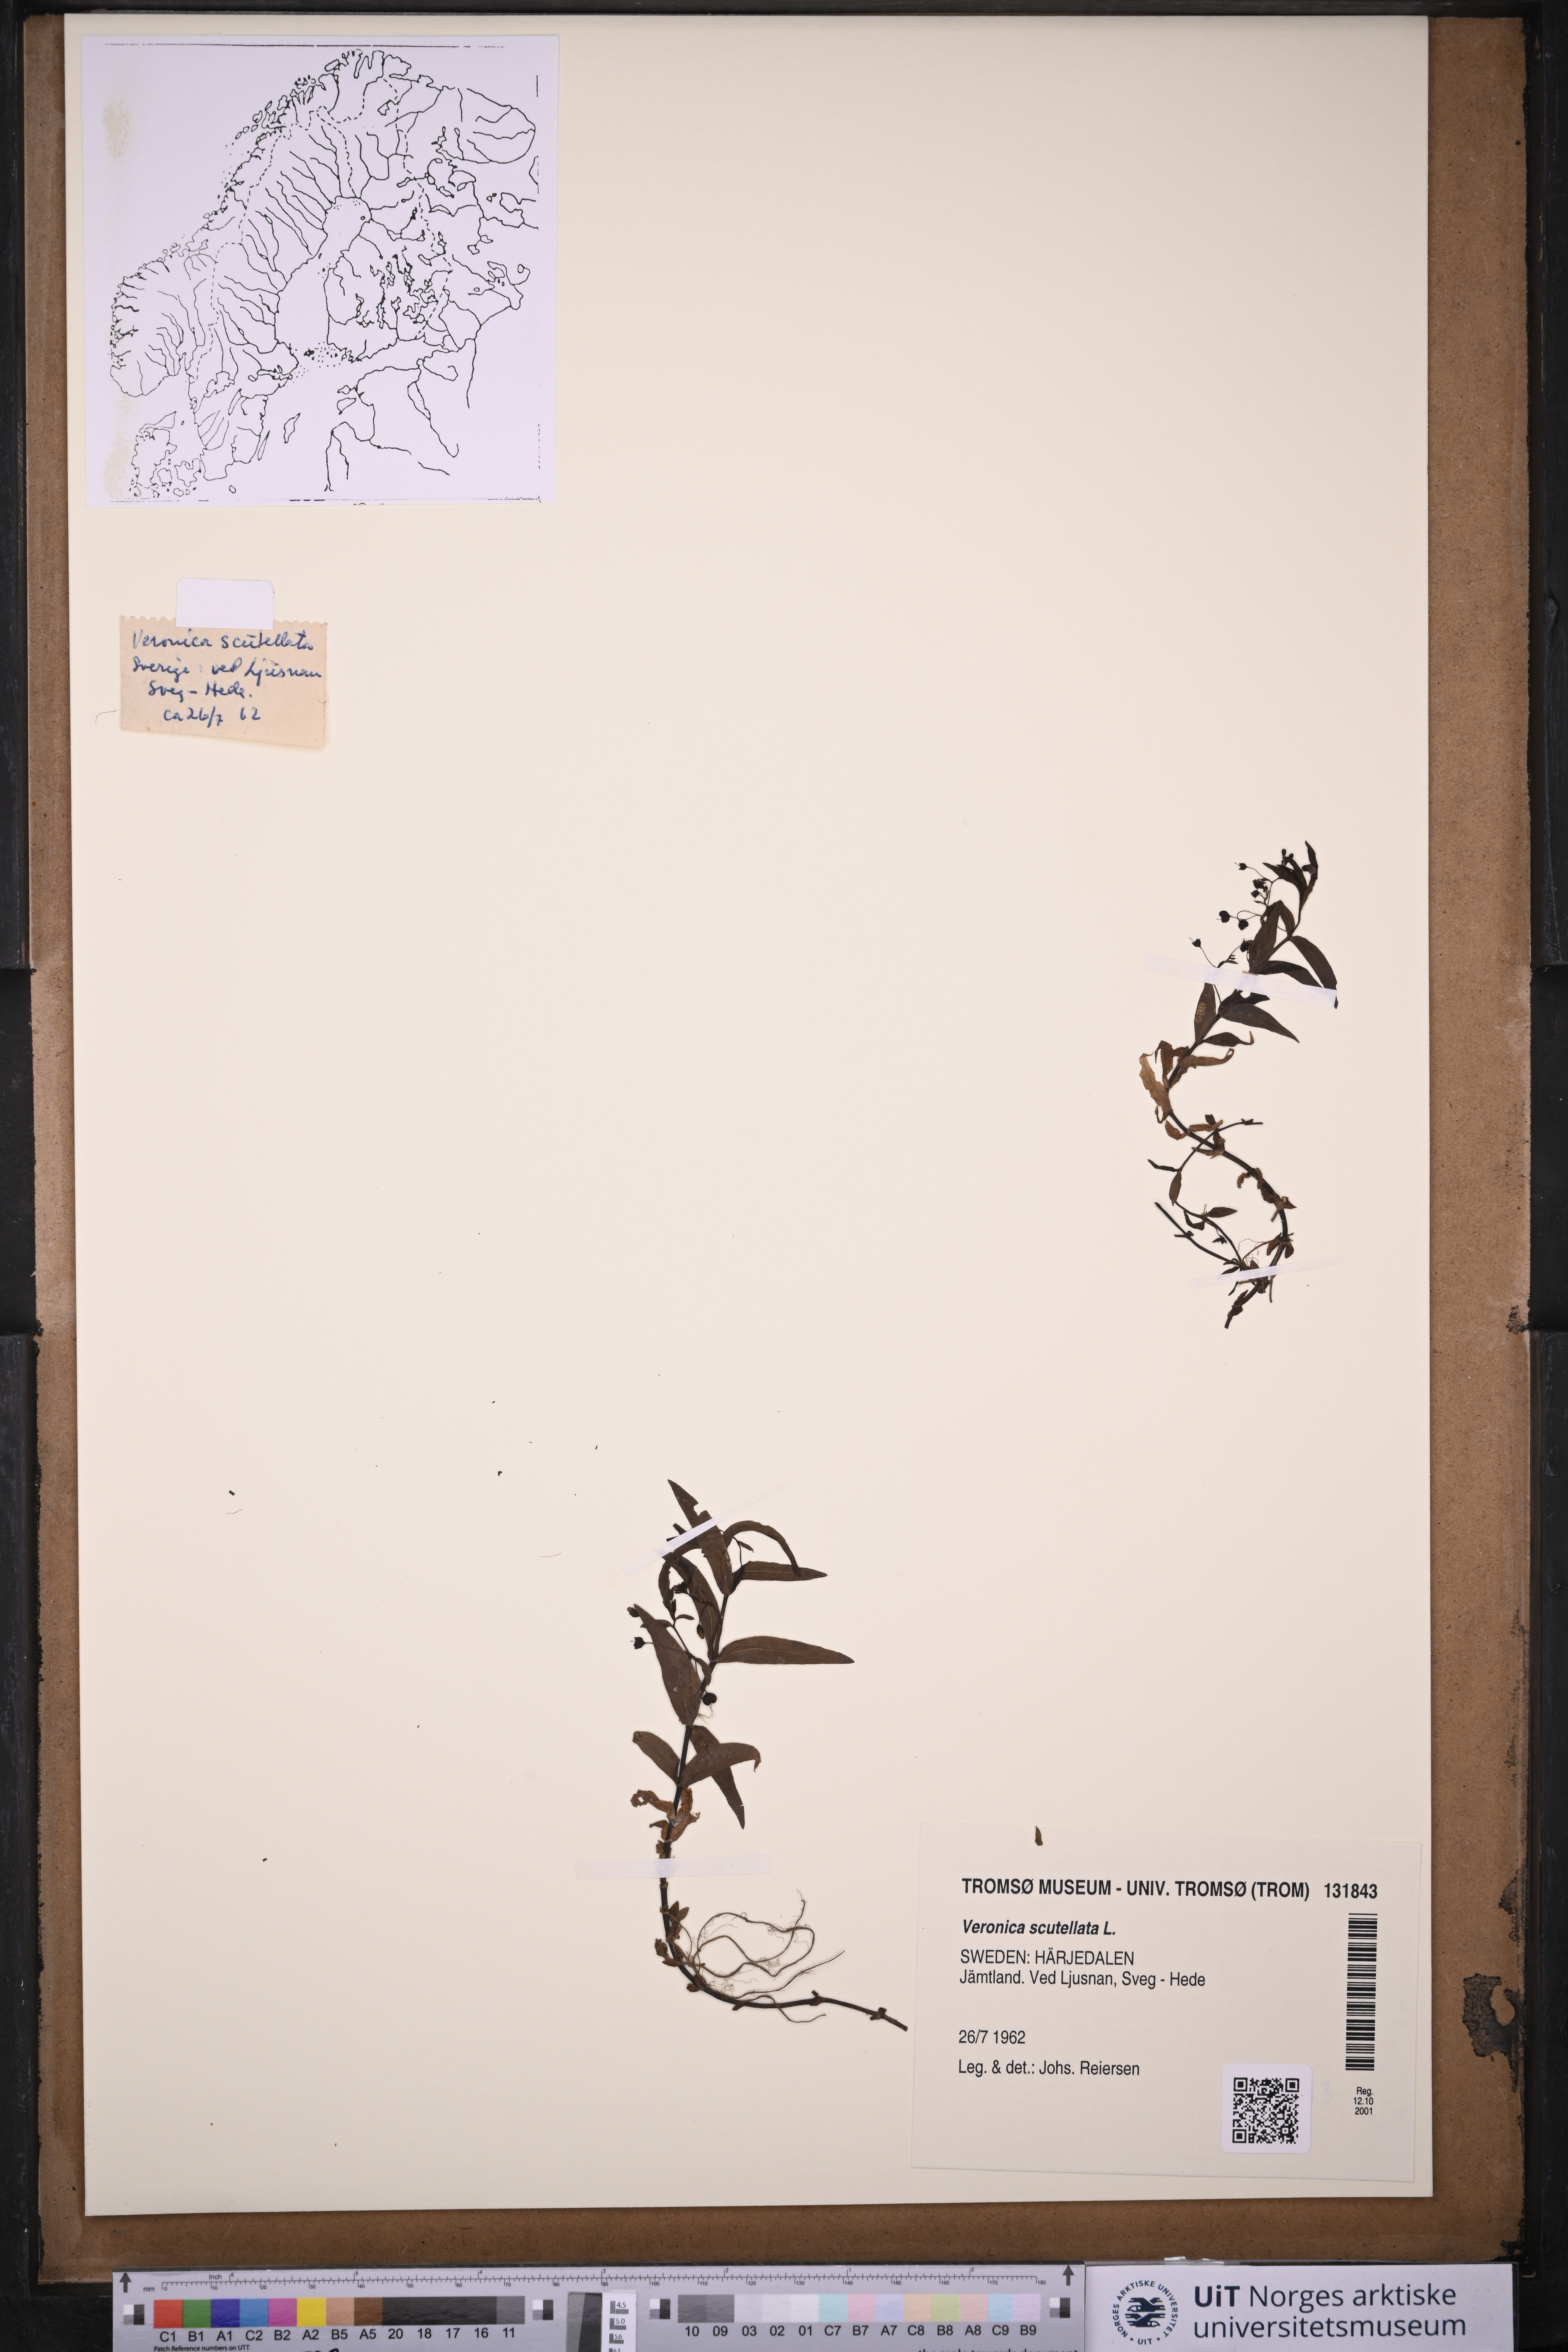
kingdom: Plantae
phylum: Tracheophyta
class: Magnoliopsida
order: Lamiales
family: Plantaginaceae
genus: Veronica
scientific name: Veronica scutellata
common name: Marsh speedwell
